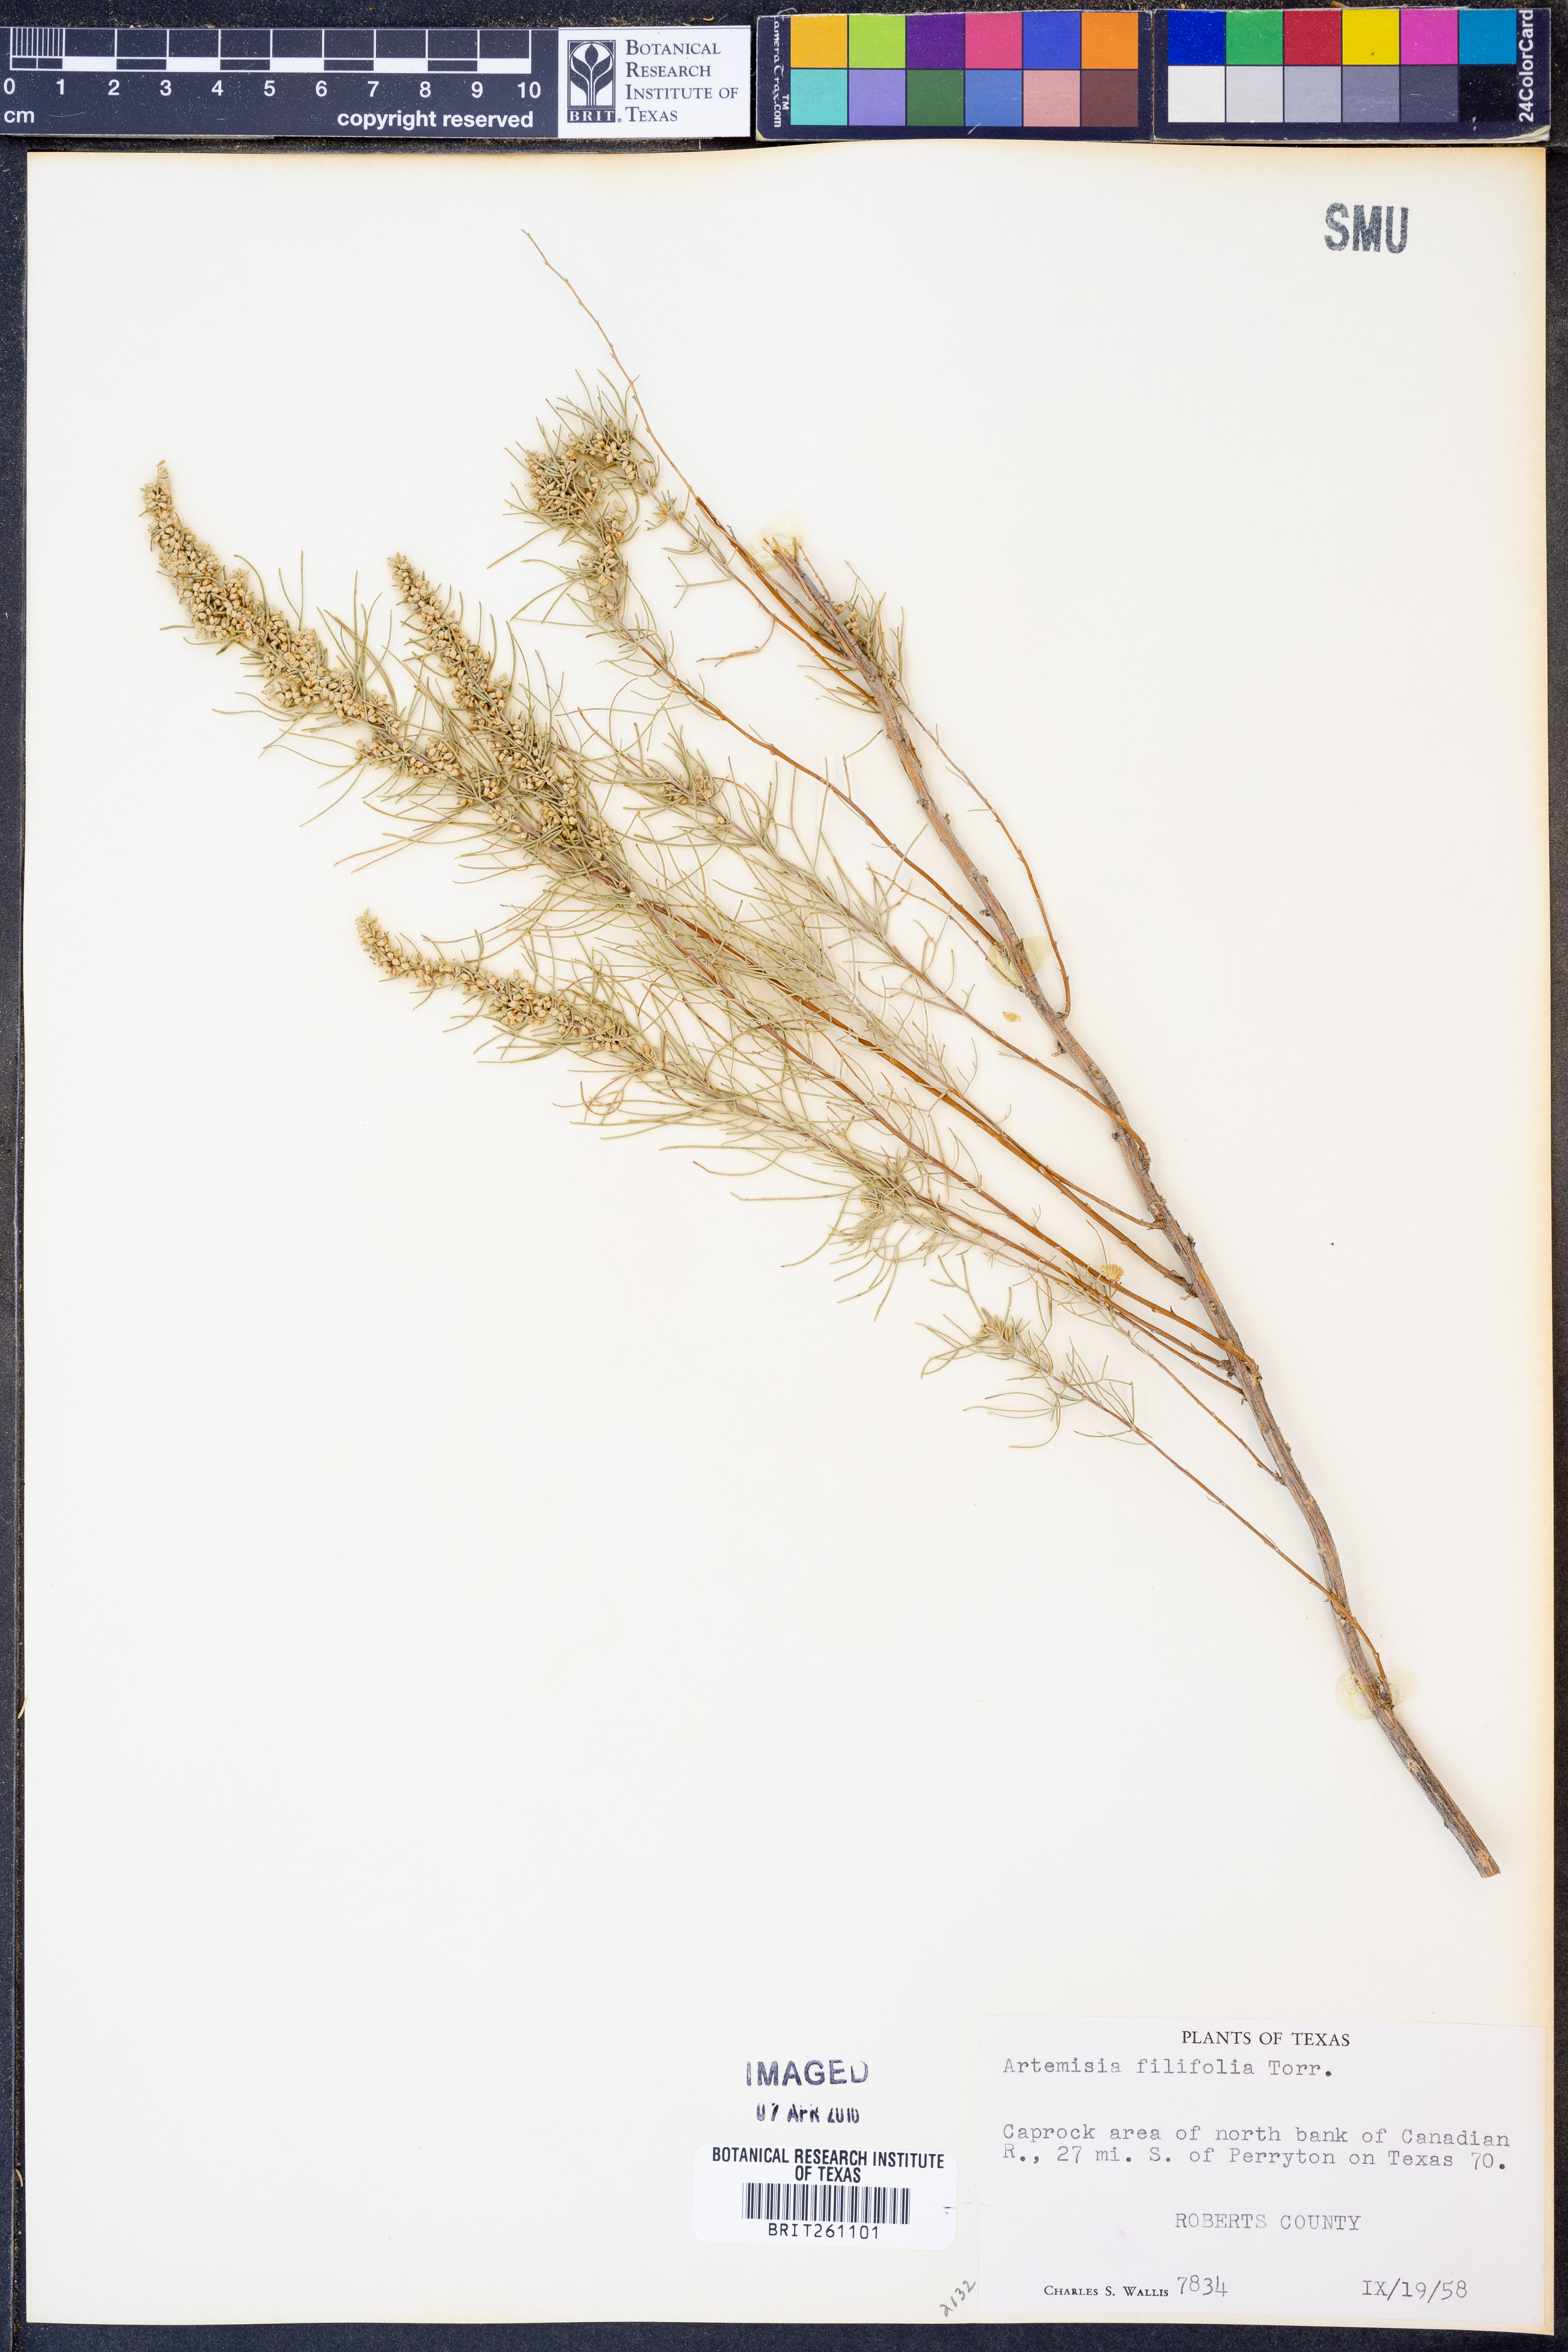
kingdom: Plantae
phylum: Tracheophyta
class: Magnoliopsida
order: Asterales
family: Asteraceae
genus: Artemisia
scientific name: Artemisia filifolia
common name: Sand-sage
